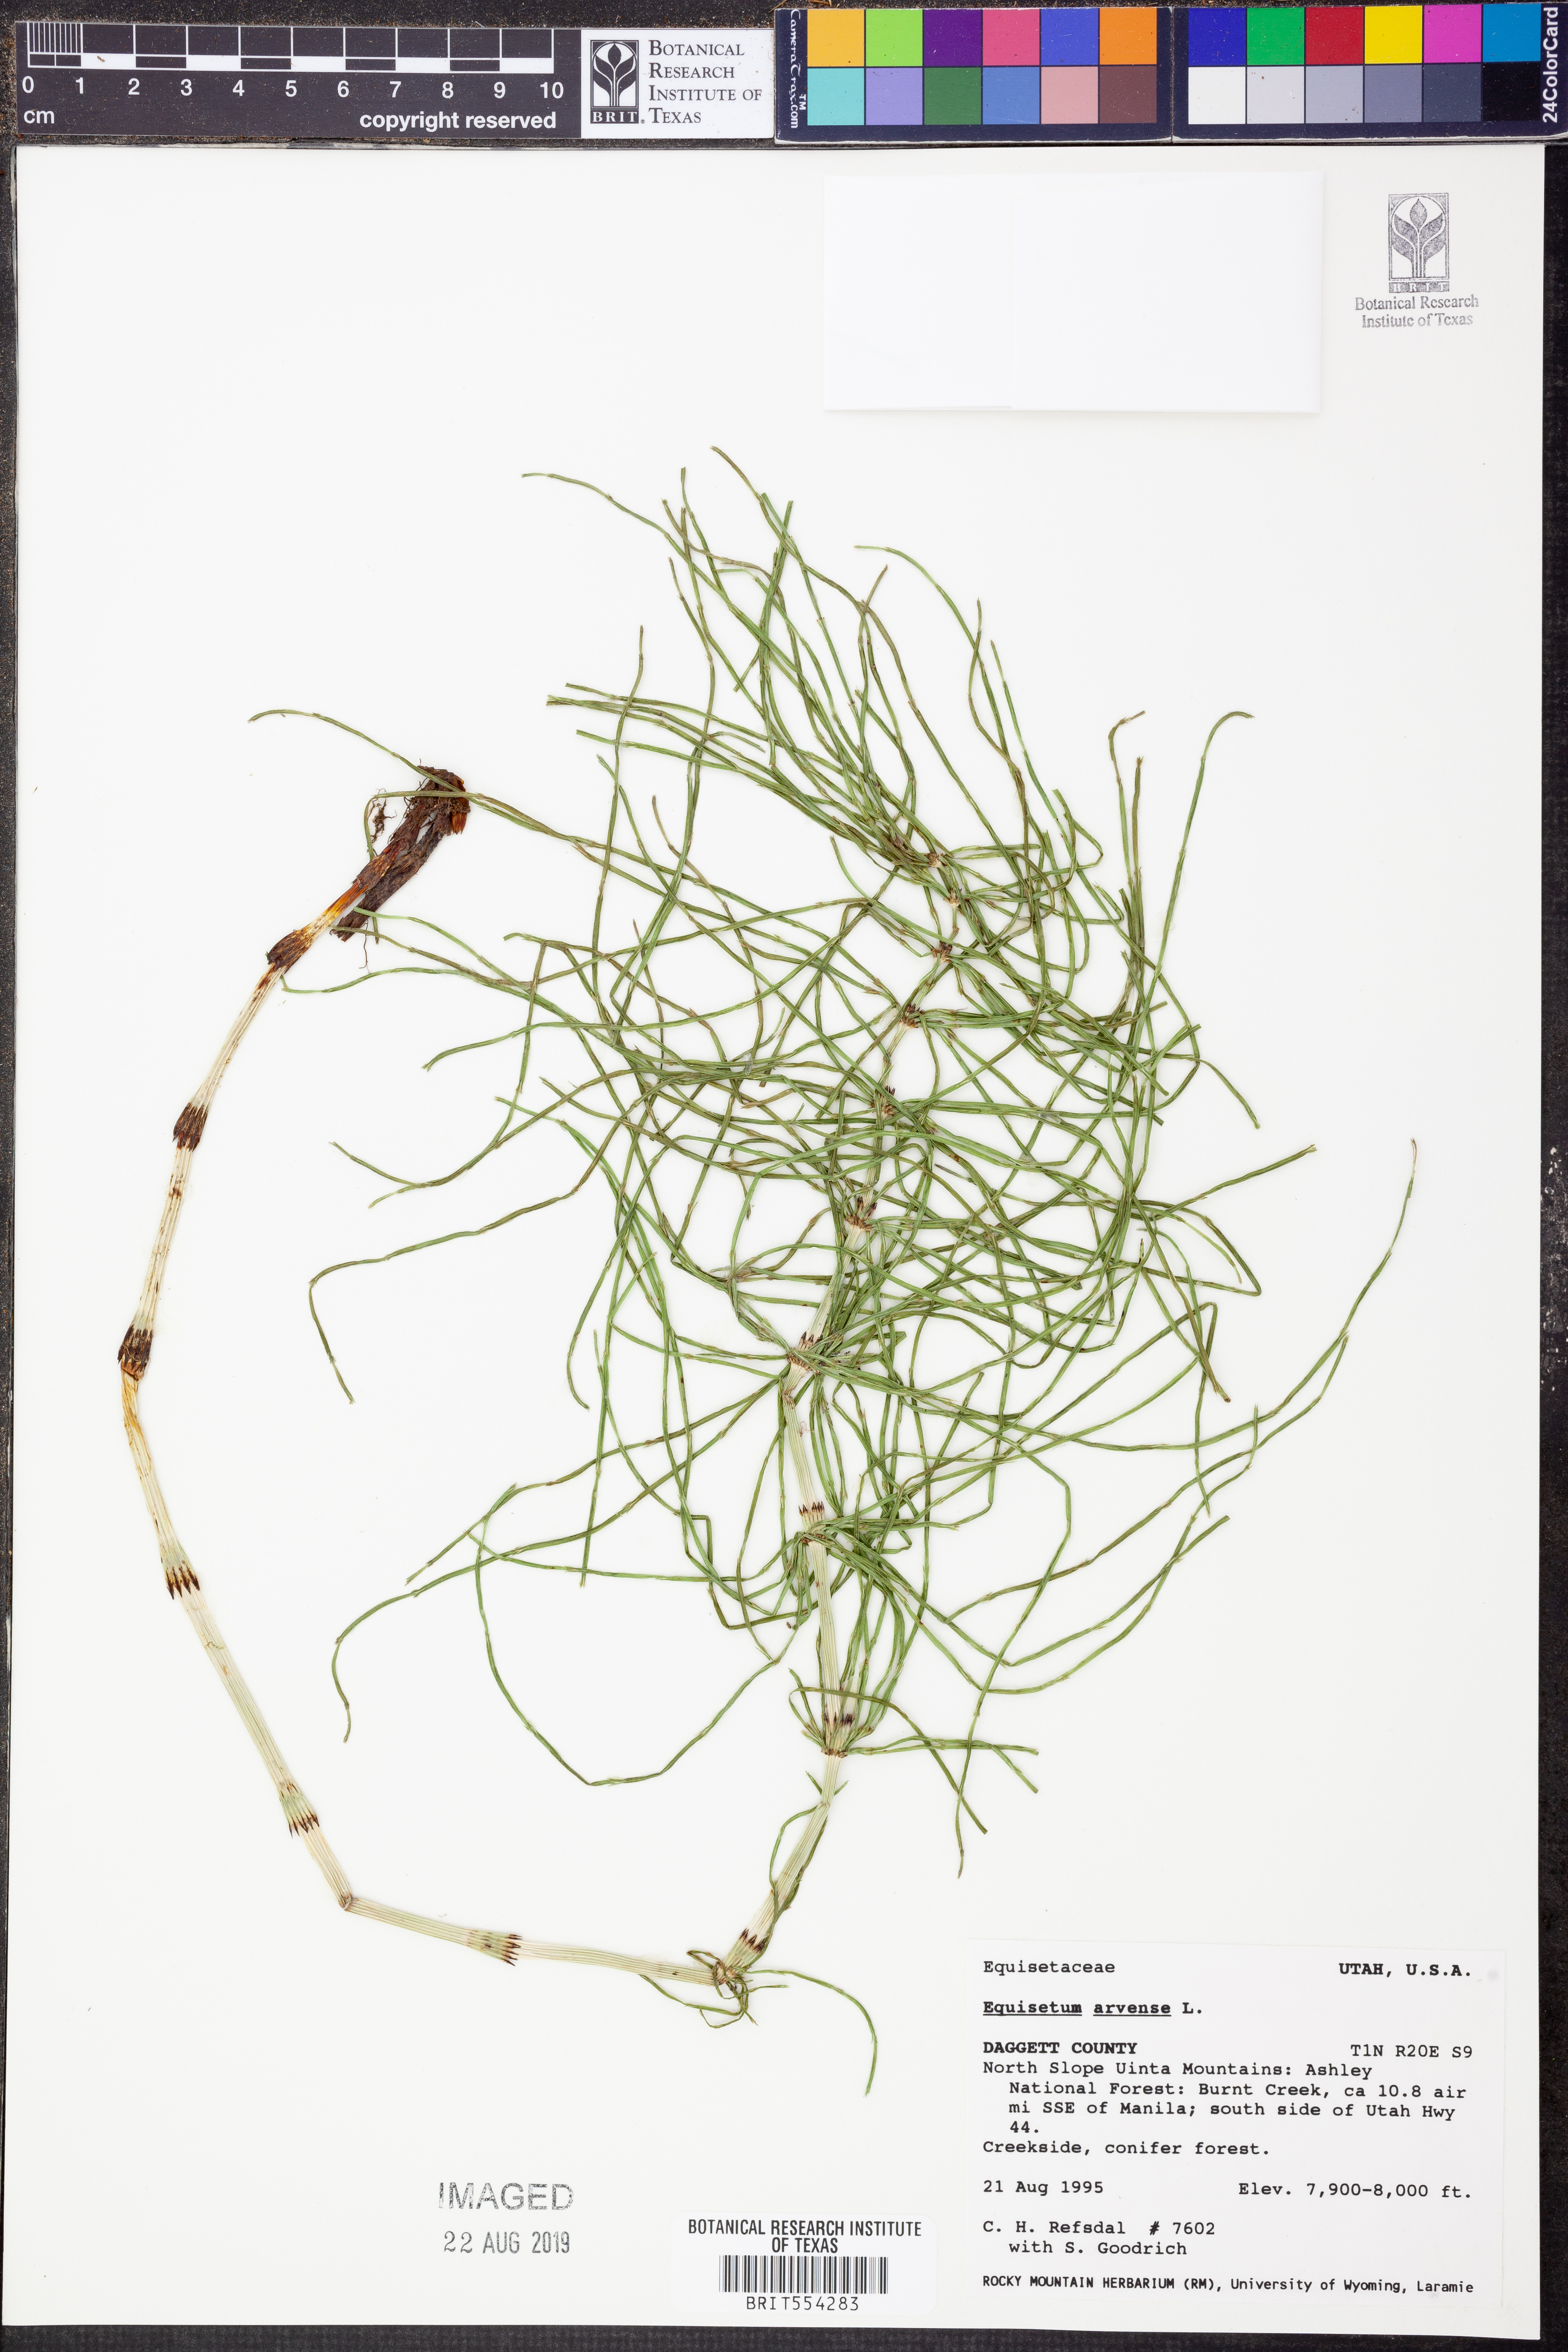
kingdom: Plantae
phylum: Tracheophyta
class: Polypodiopsida
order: Equisetales
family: Equisetaceae
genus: Equisetum
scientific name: Equisetum arvense
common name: Field horsetail
